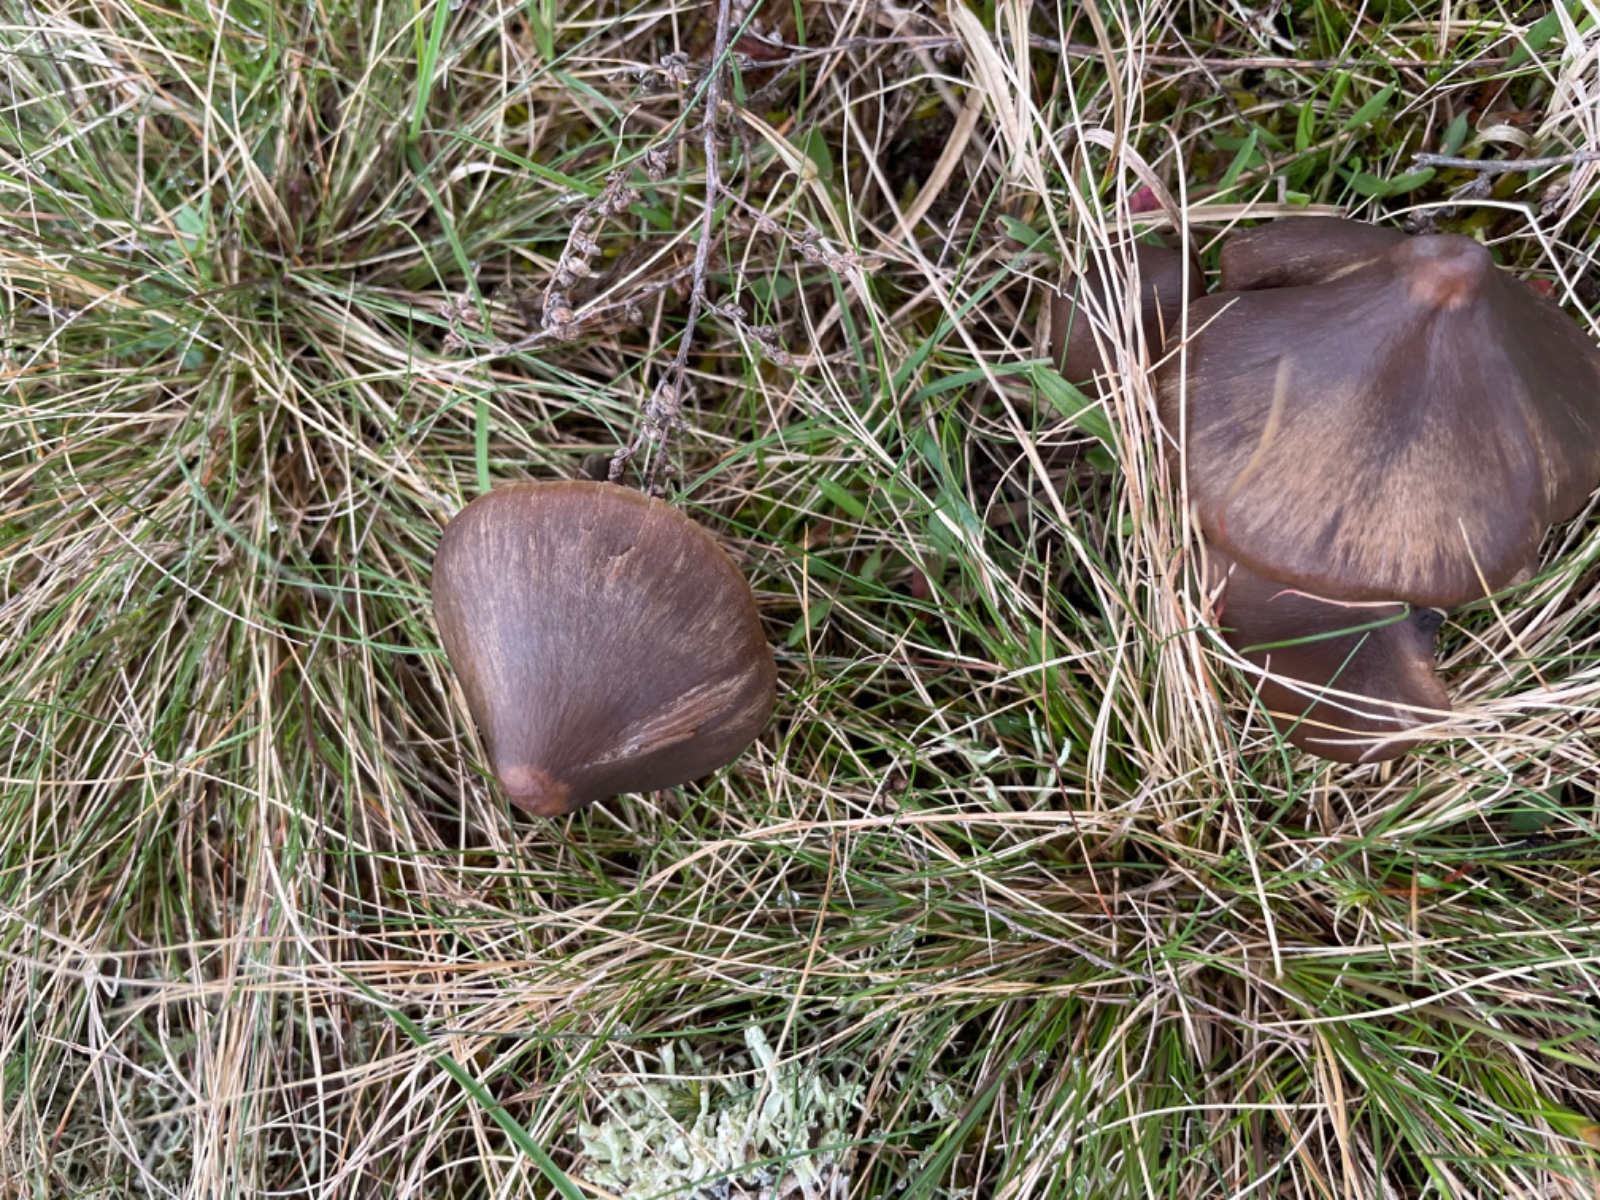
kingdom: Fungi
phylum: Basidiomycota
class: Agaricomycetes
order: Agaricales
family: Entolomataceae
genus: Entoloma
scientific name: Entoloma vernum
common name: vår-rødblad
